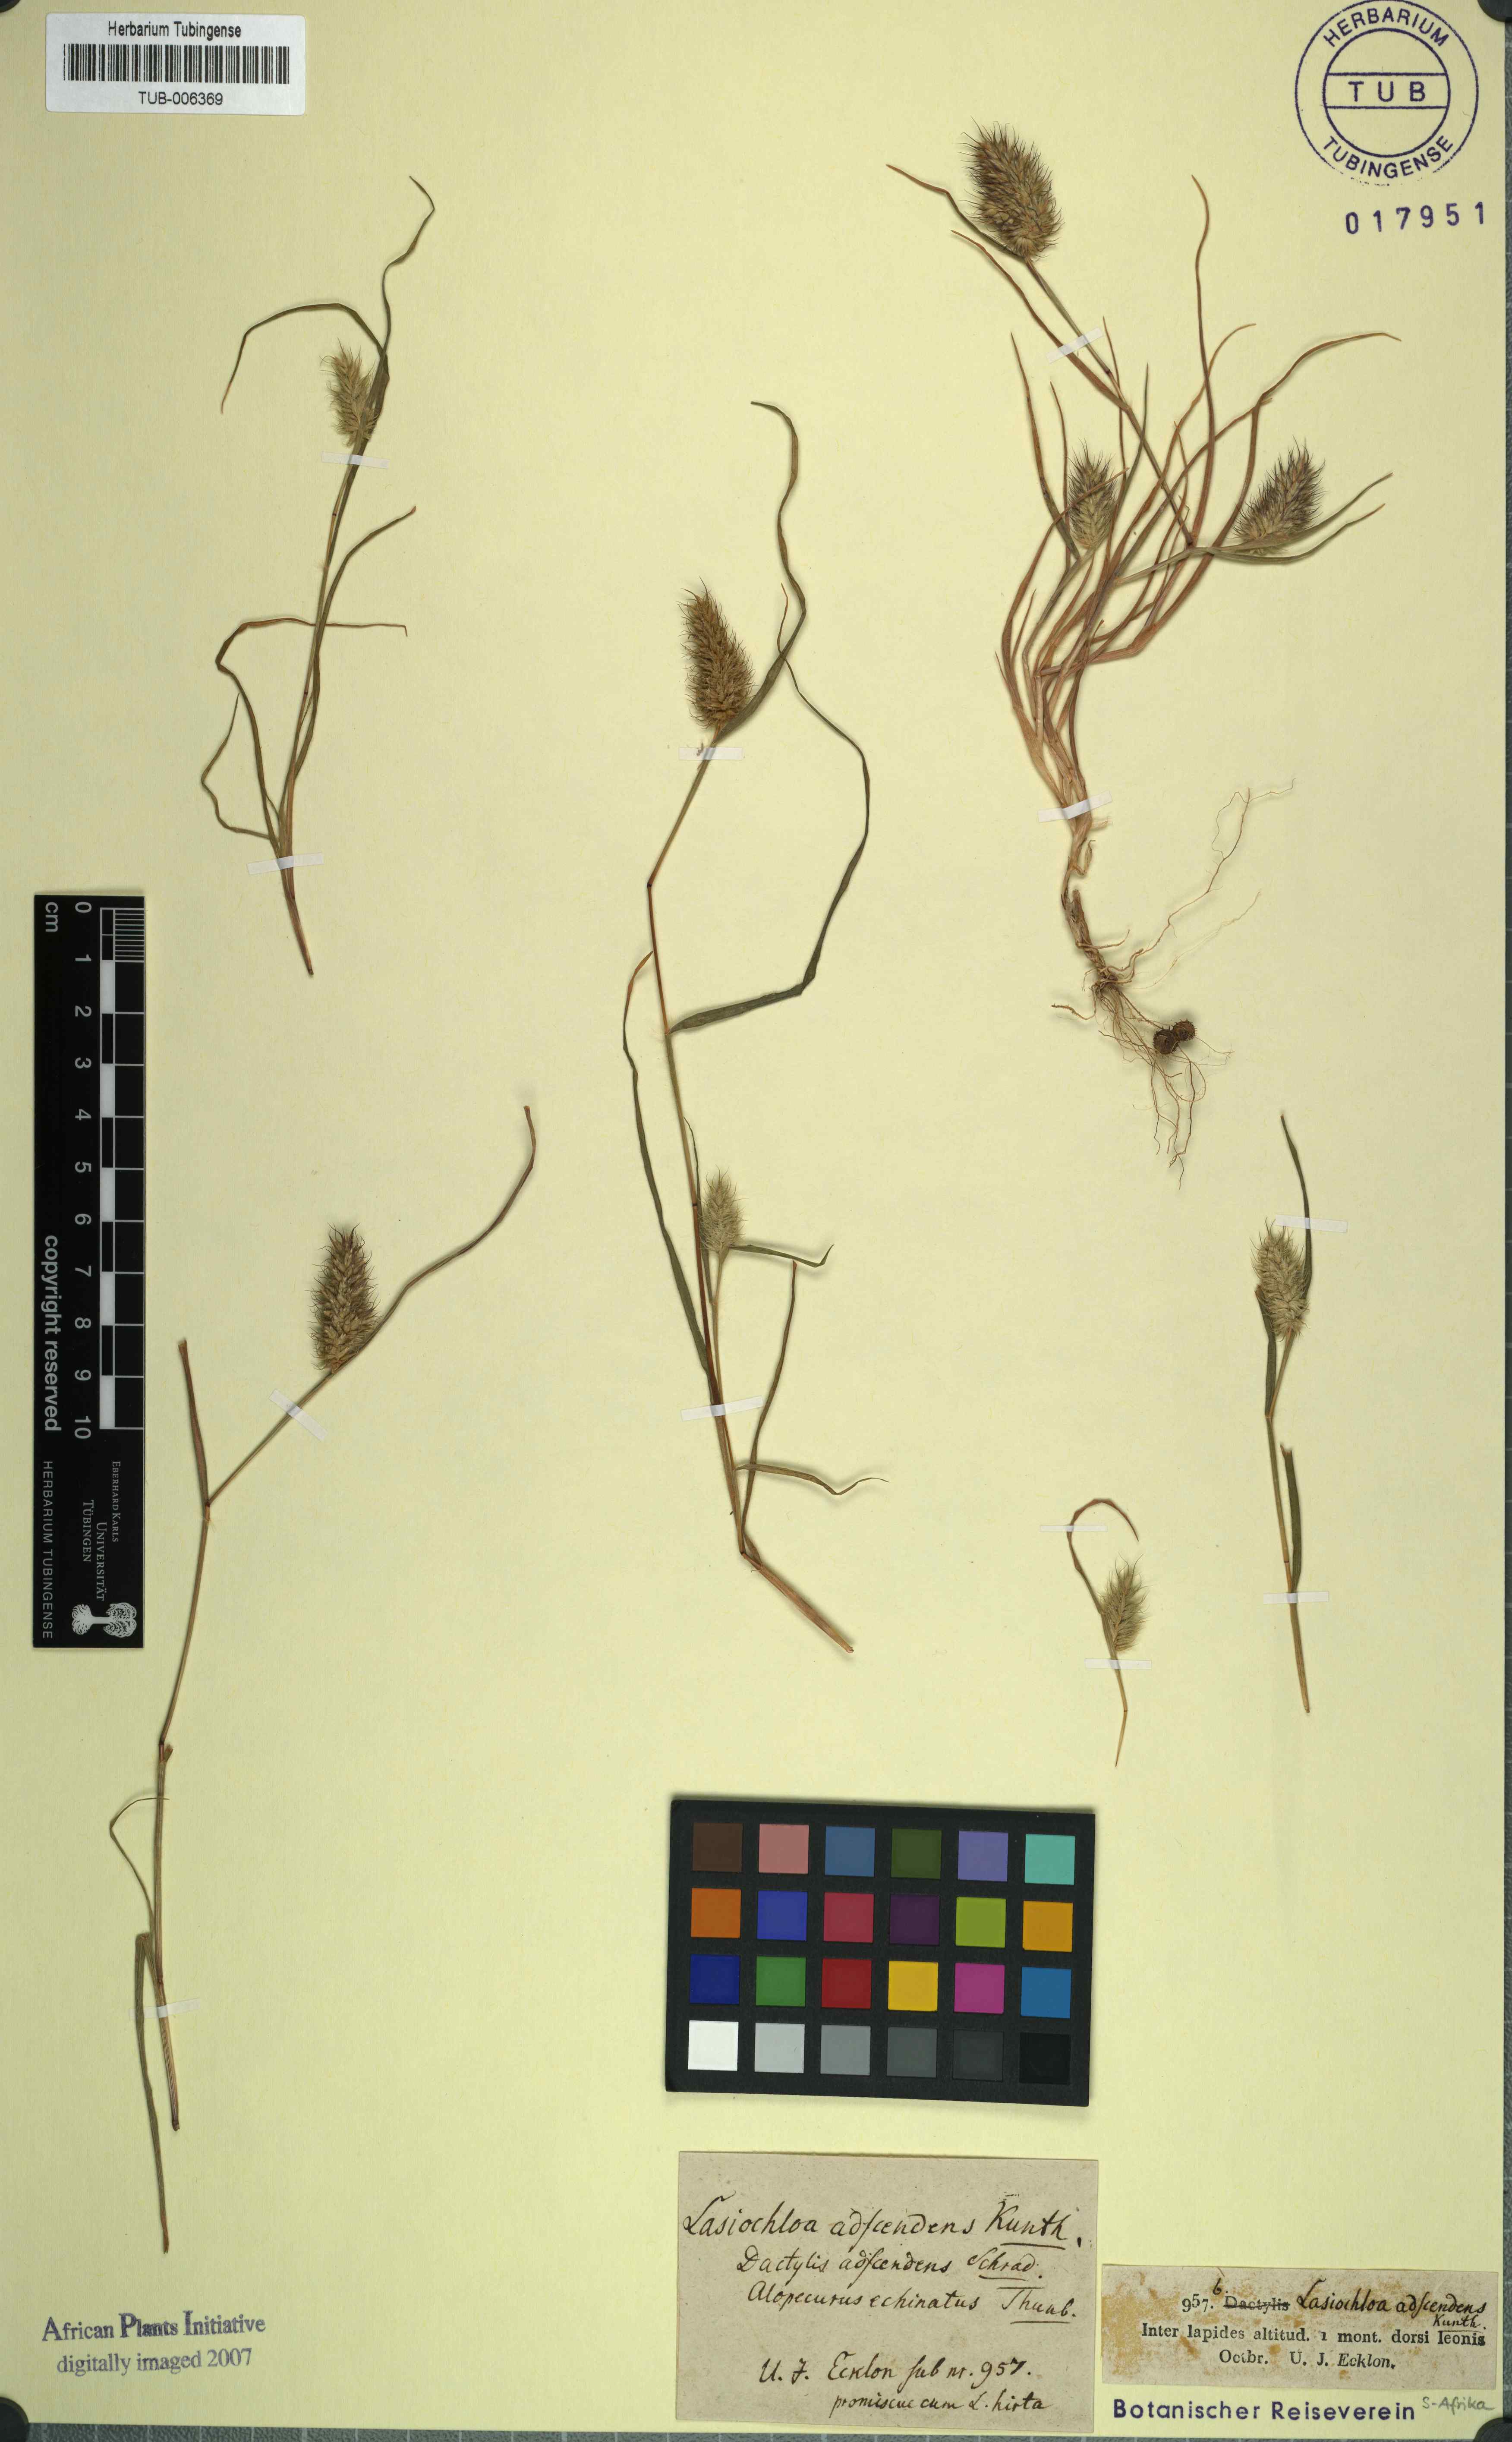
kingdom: Plantae
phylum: Tracheophyta
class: Liliopsida
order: Poales
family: Poaceae
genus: Tribolium
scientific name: Tribolium echinatum
